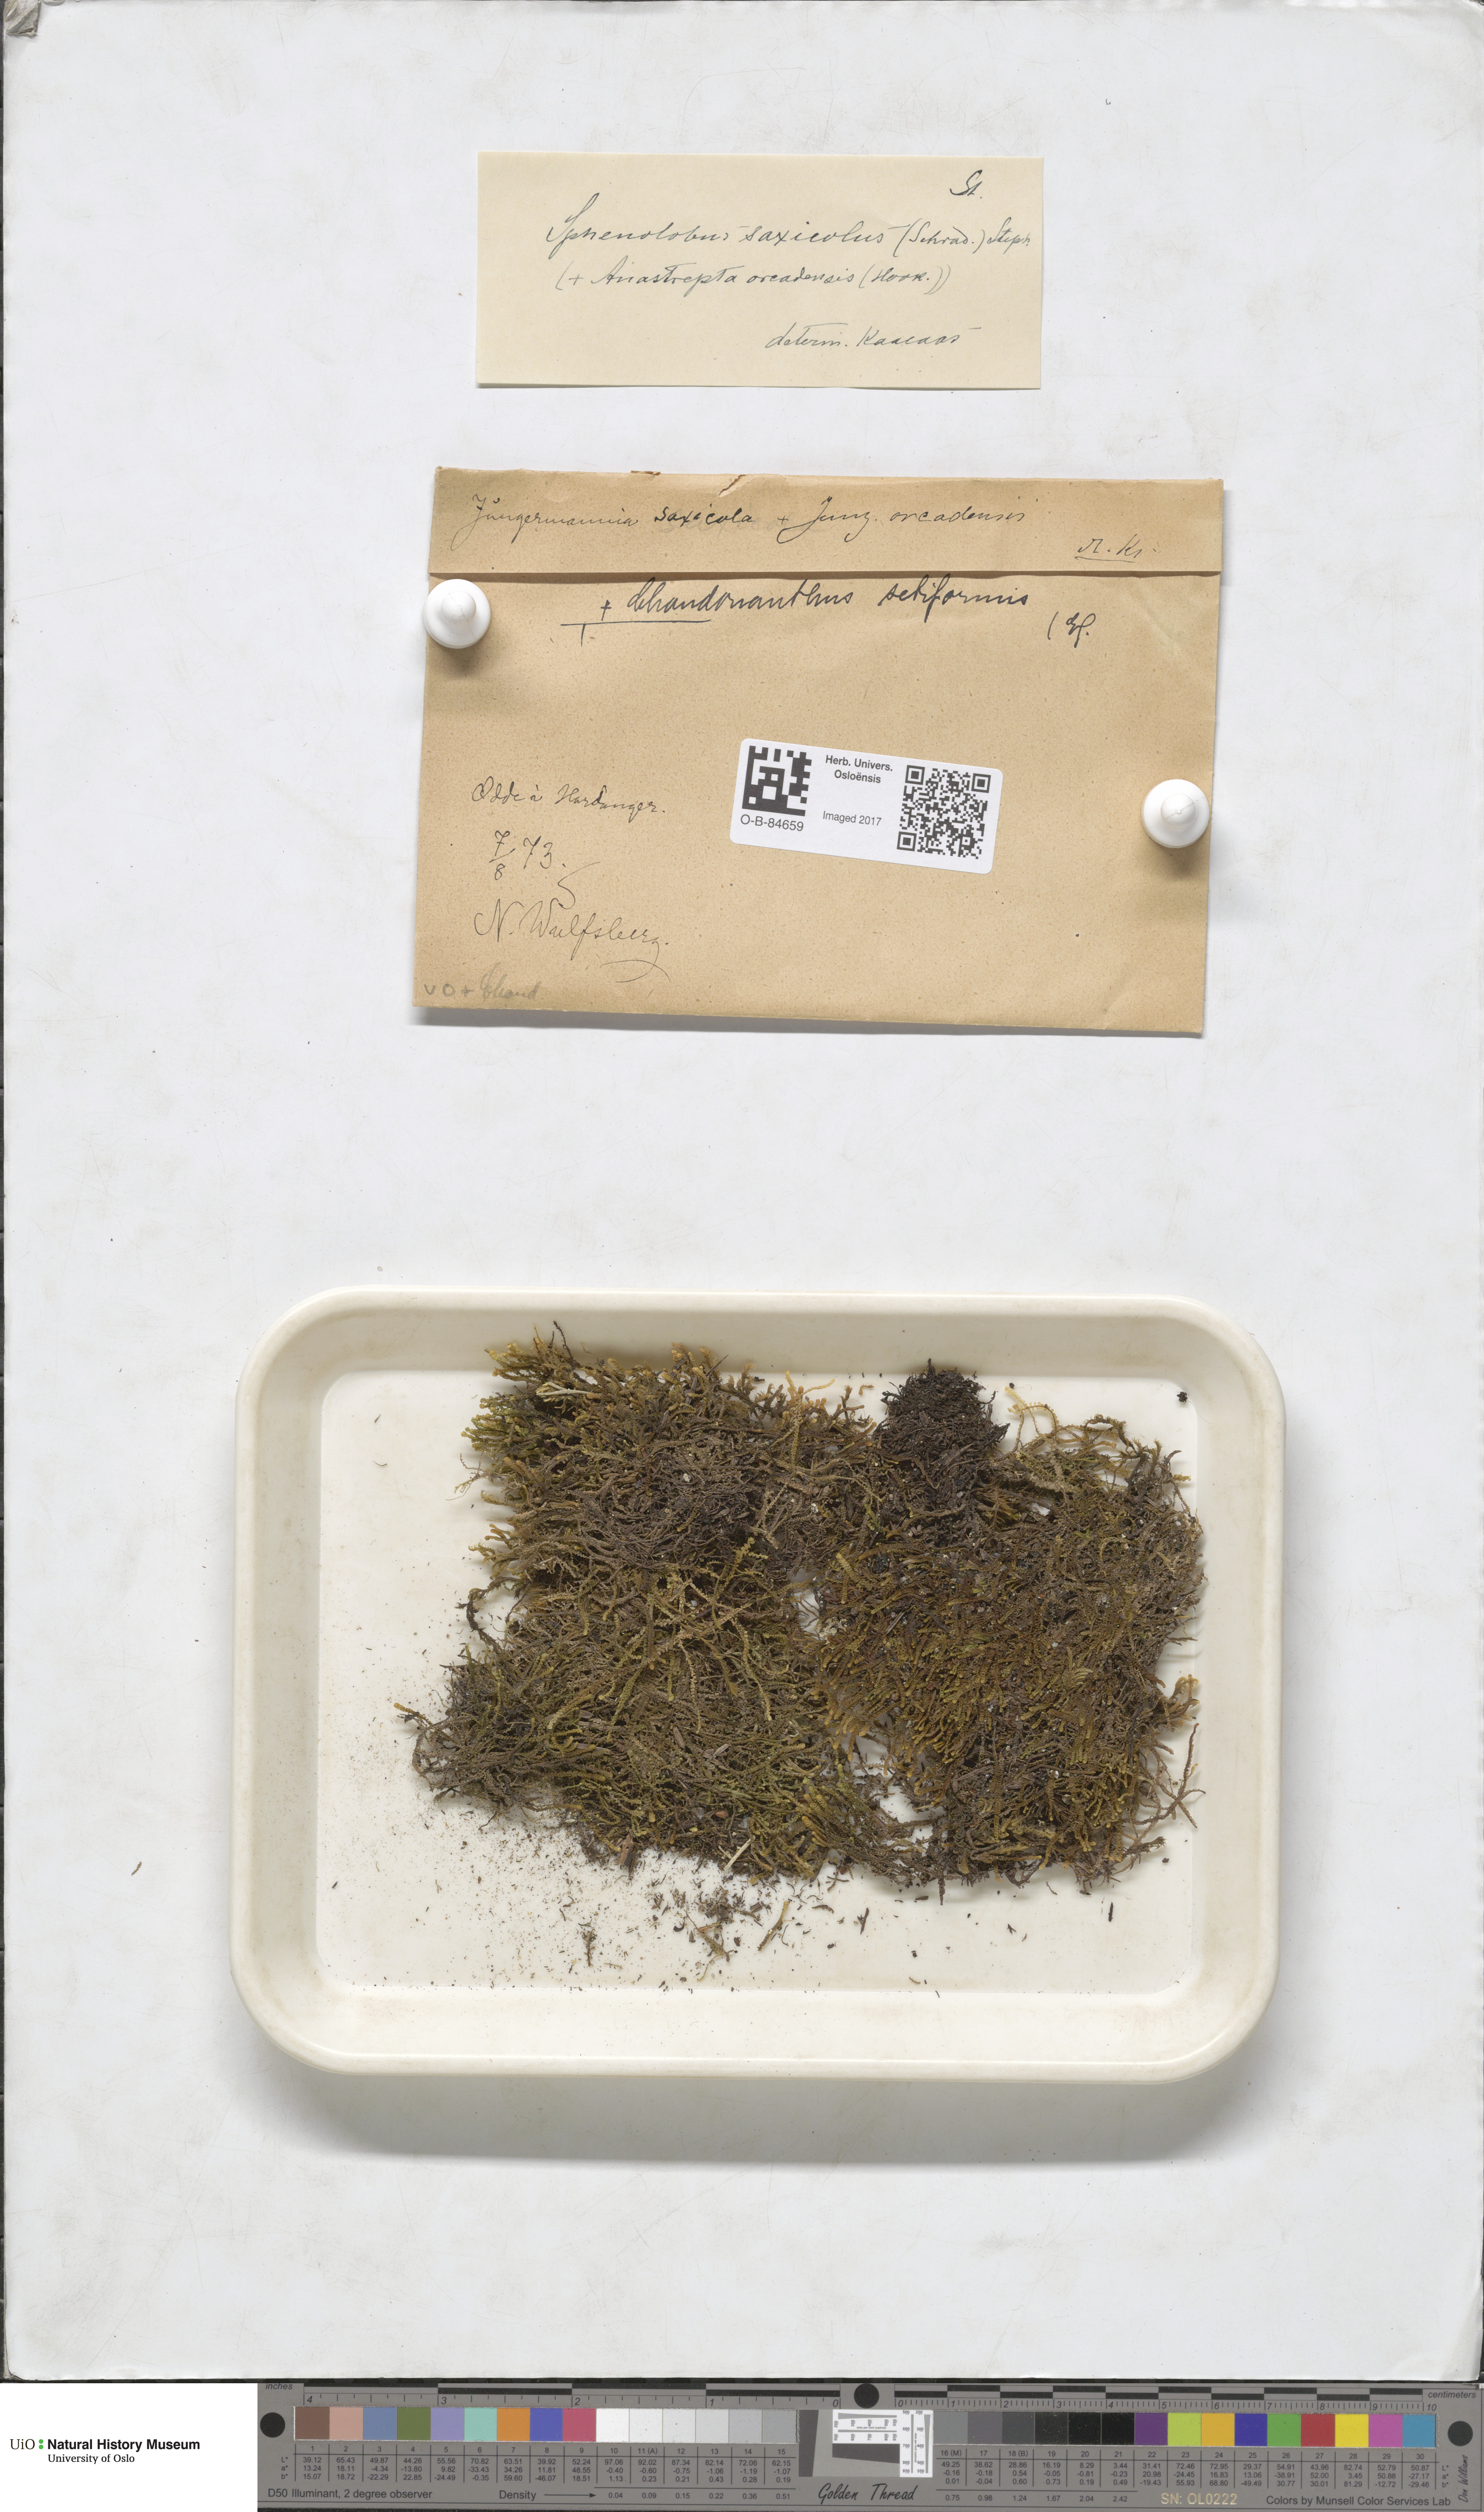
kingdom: Plantae
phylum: Marchantiophyta
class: Jungermanniopsida
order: Jungermanniales
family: Anastrophyllaceae
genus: Tetralophozia
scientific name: Tetralophozia setiformis
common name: Monster pawwort
